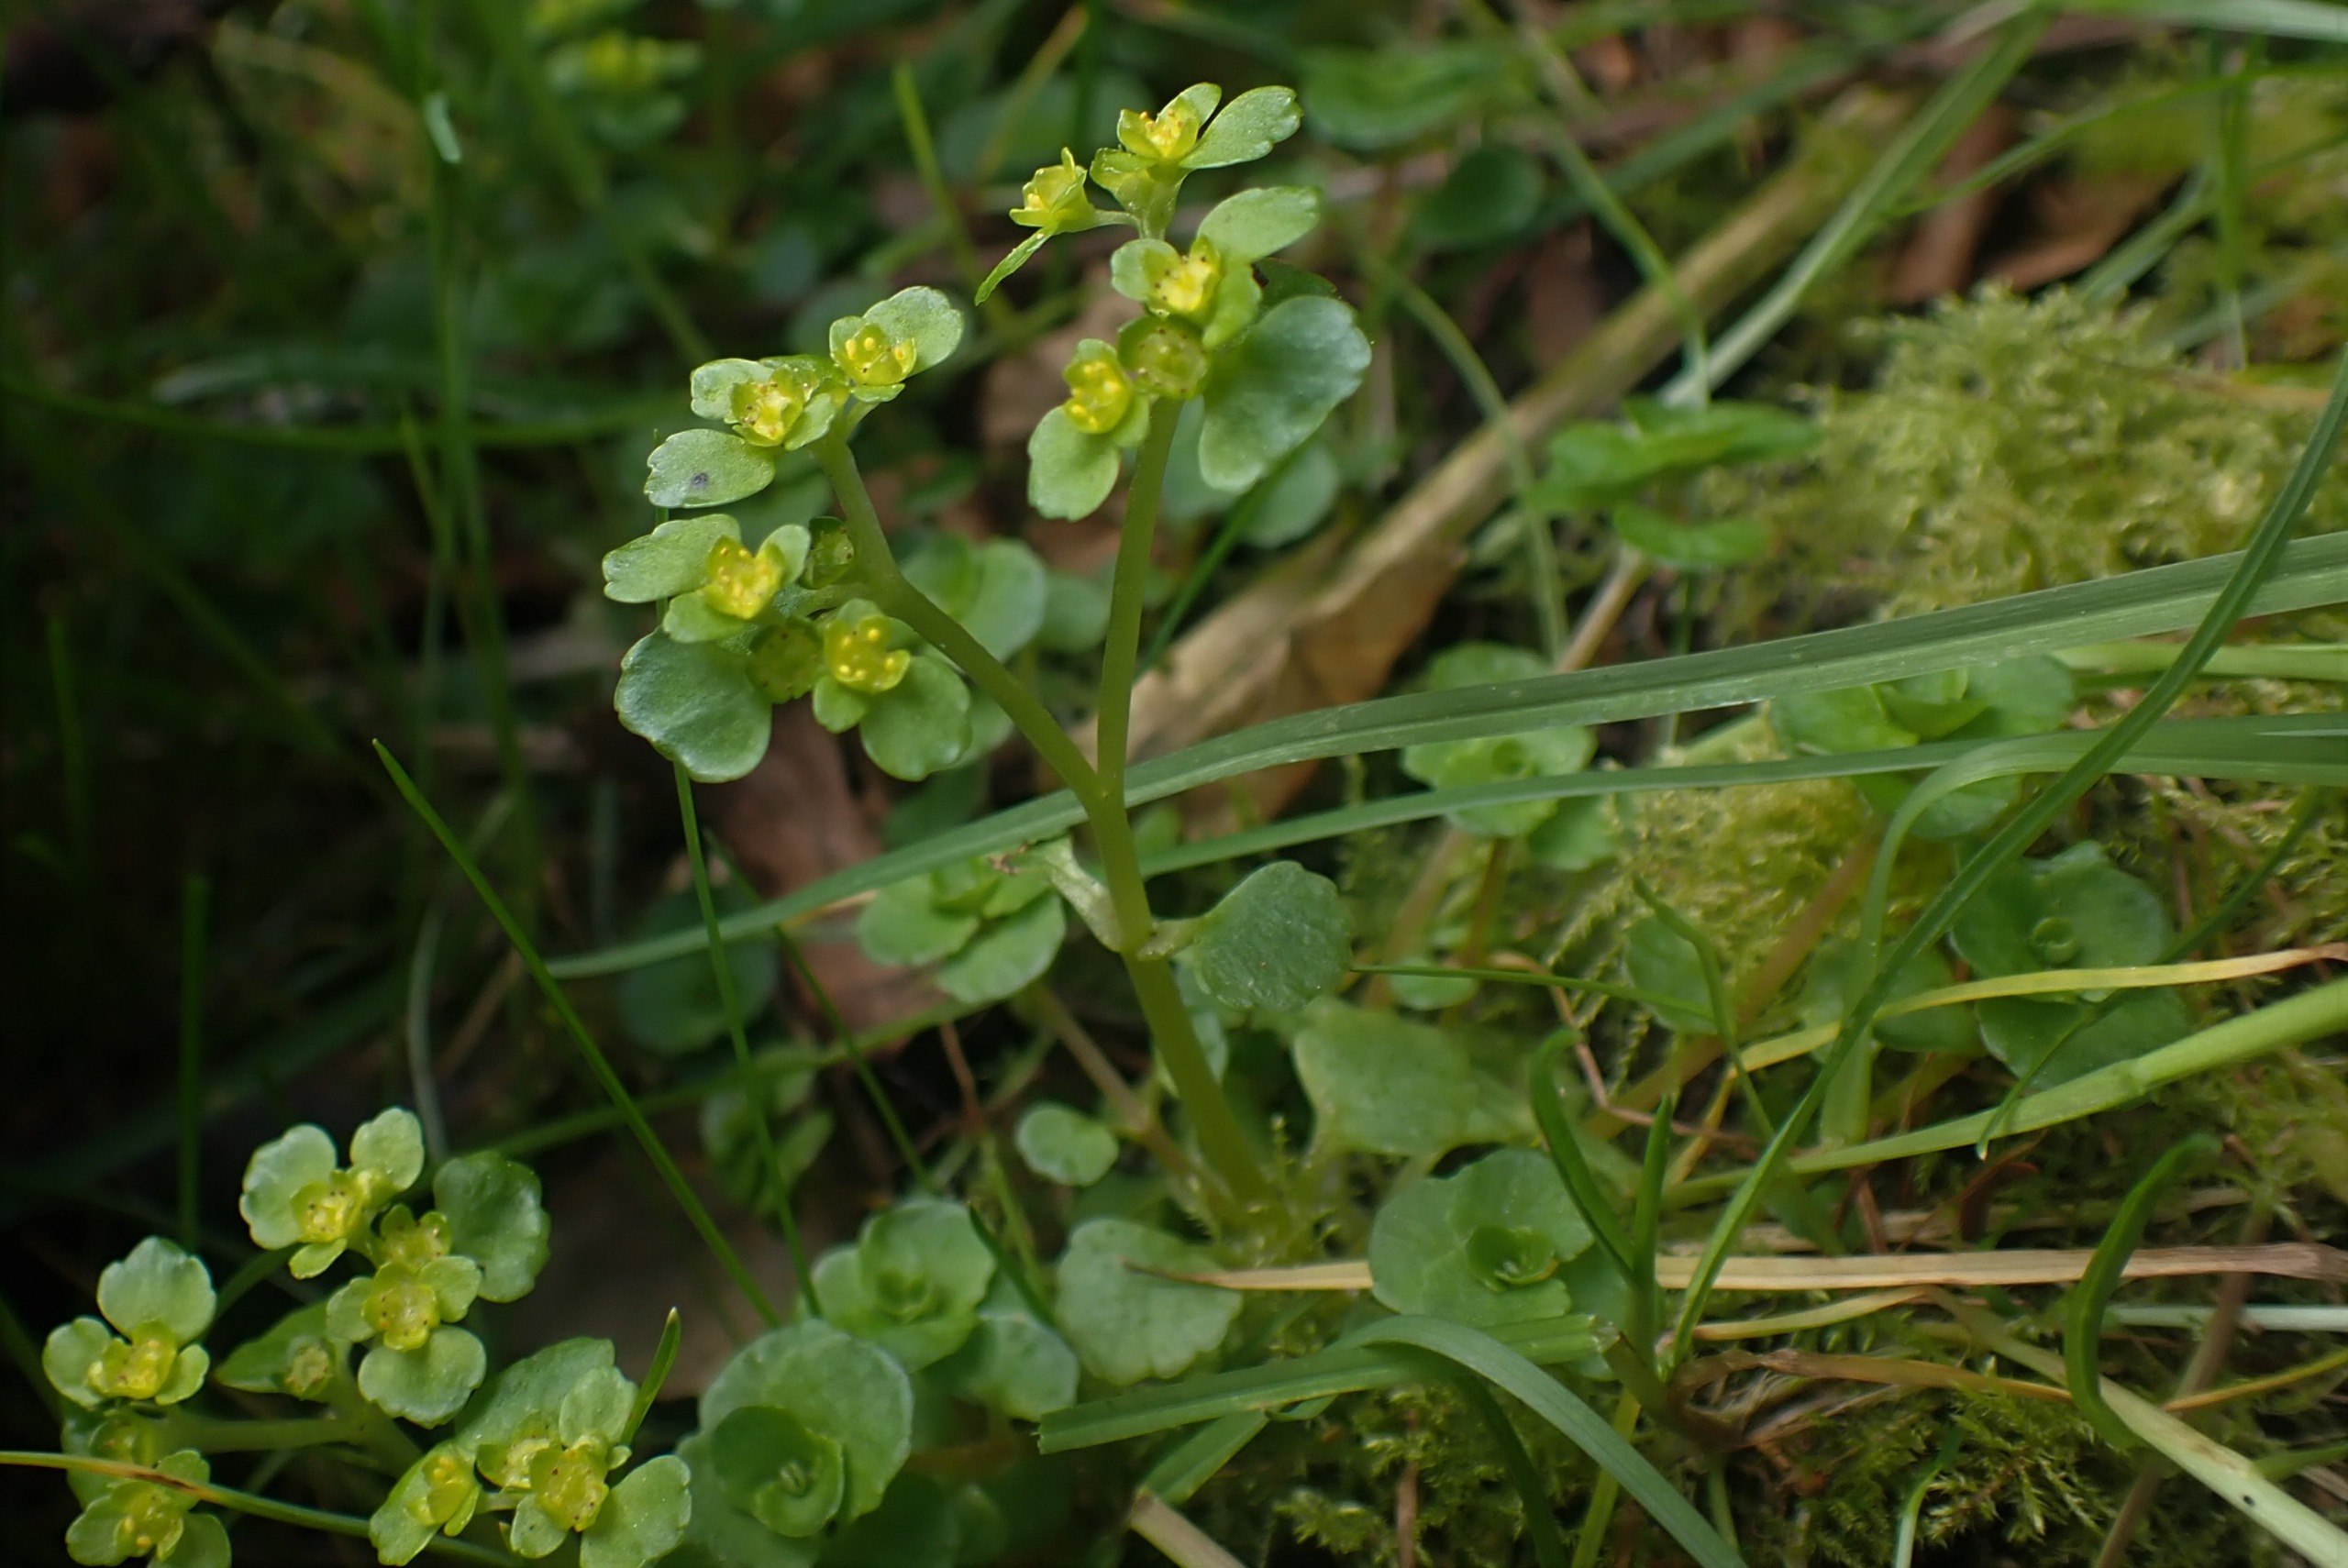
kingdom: Plantae
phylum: Tracheophyta
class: Magnoliopsida
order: Saxifragales
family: Saxifragaceae
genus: Chrysosplenium
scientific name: Chrysosplenium oppositifolium
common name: Småbladet milturt
